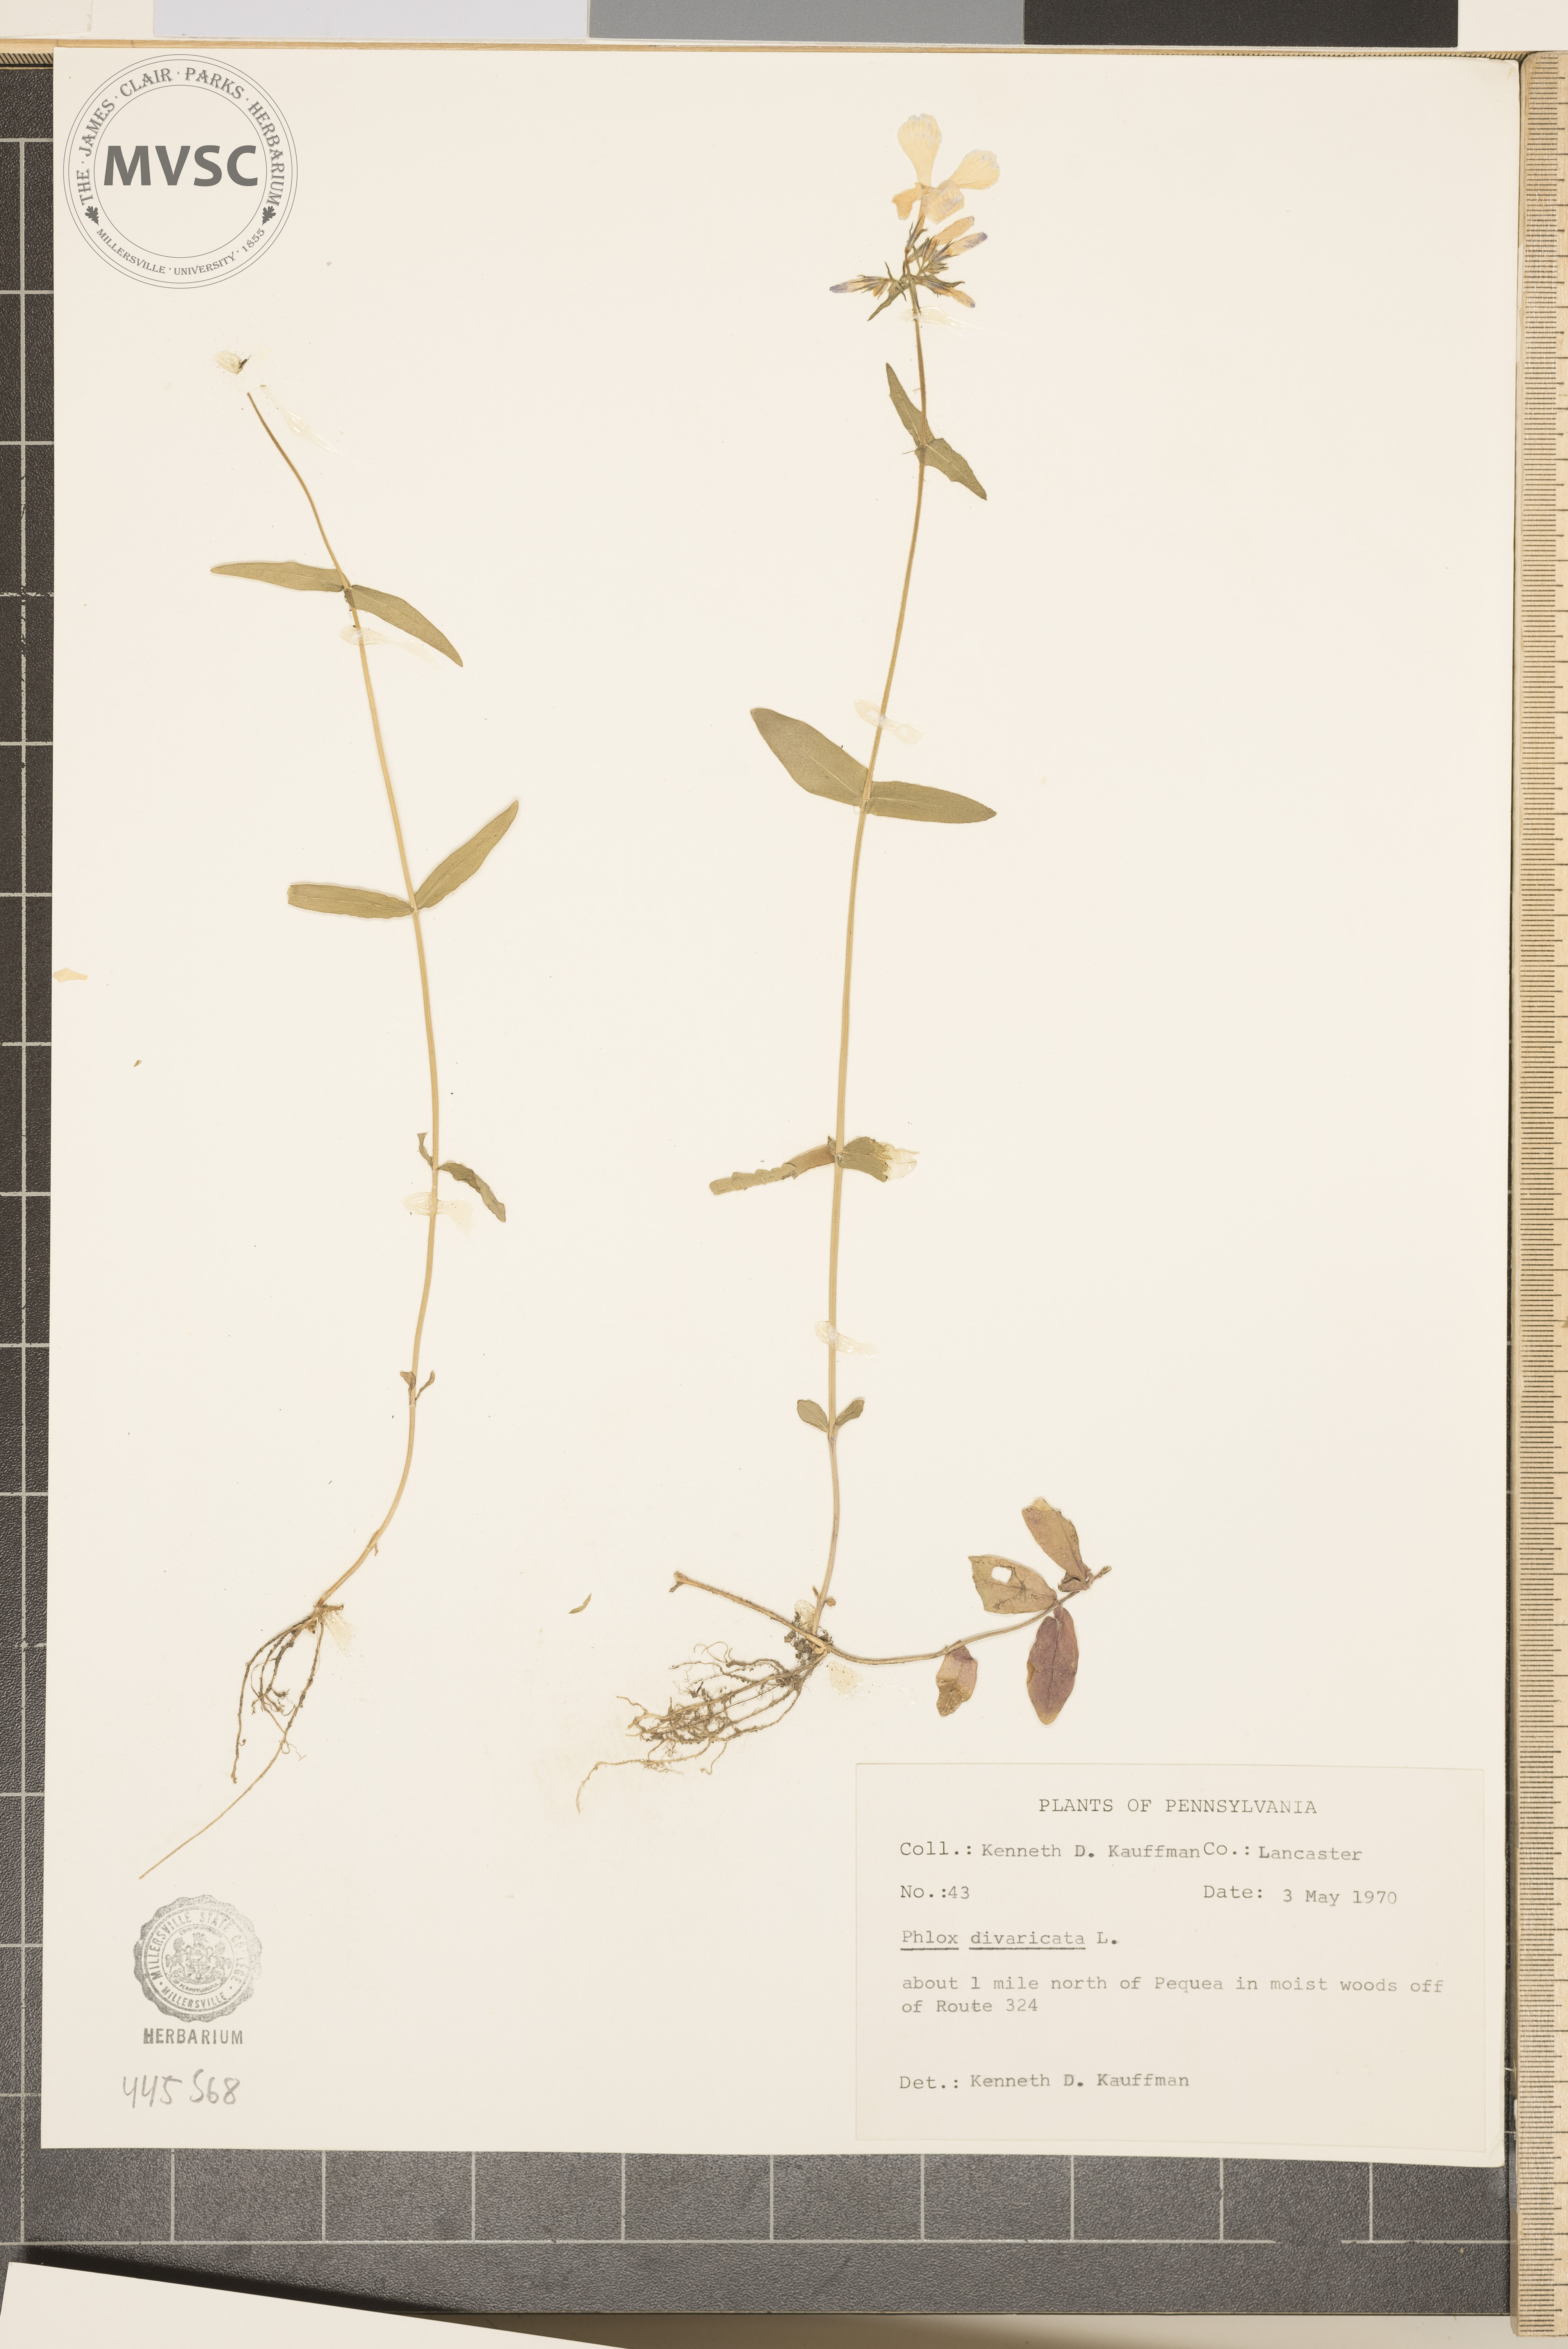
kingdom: Plantae
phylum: Tracheophyta
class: Magnoliopsida
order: Ericales
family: Polemoniaceae
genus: Phlox
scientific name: Phlox divaricata
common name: Blue phlox
